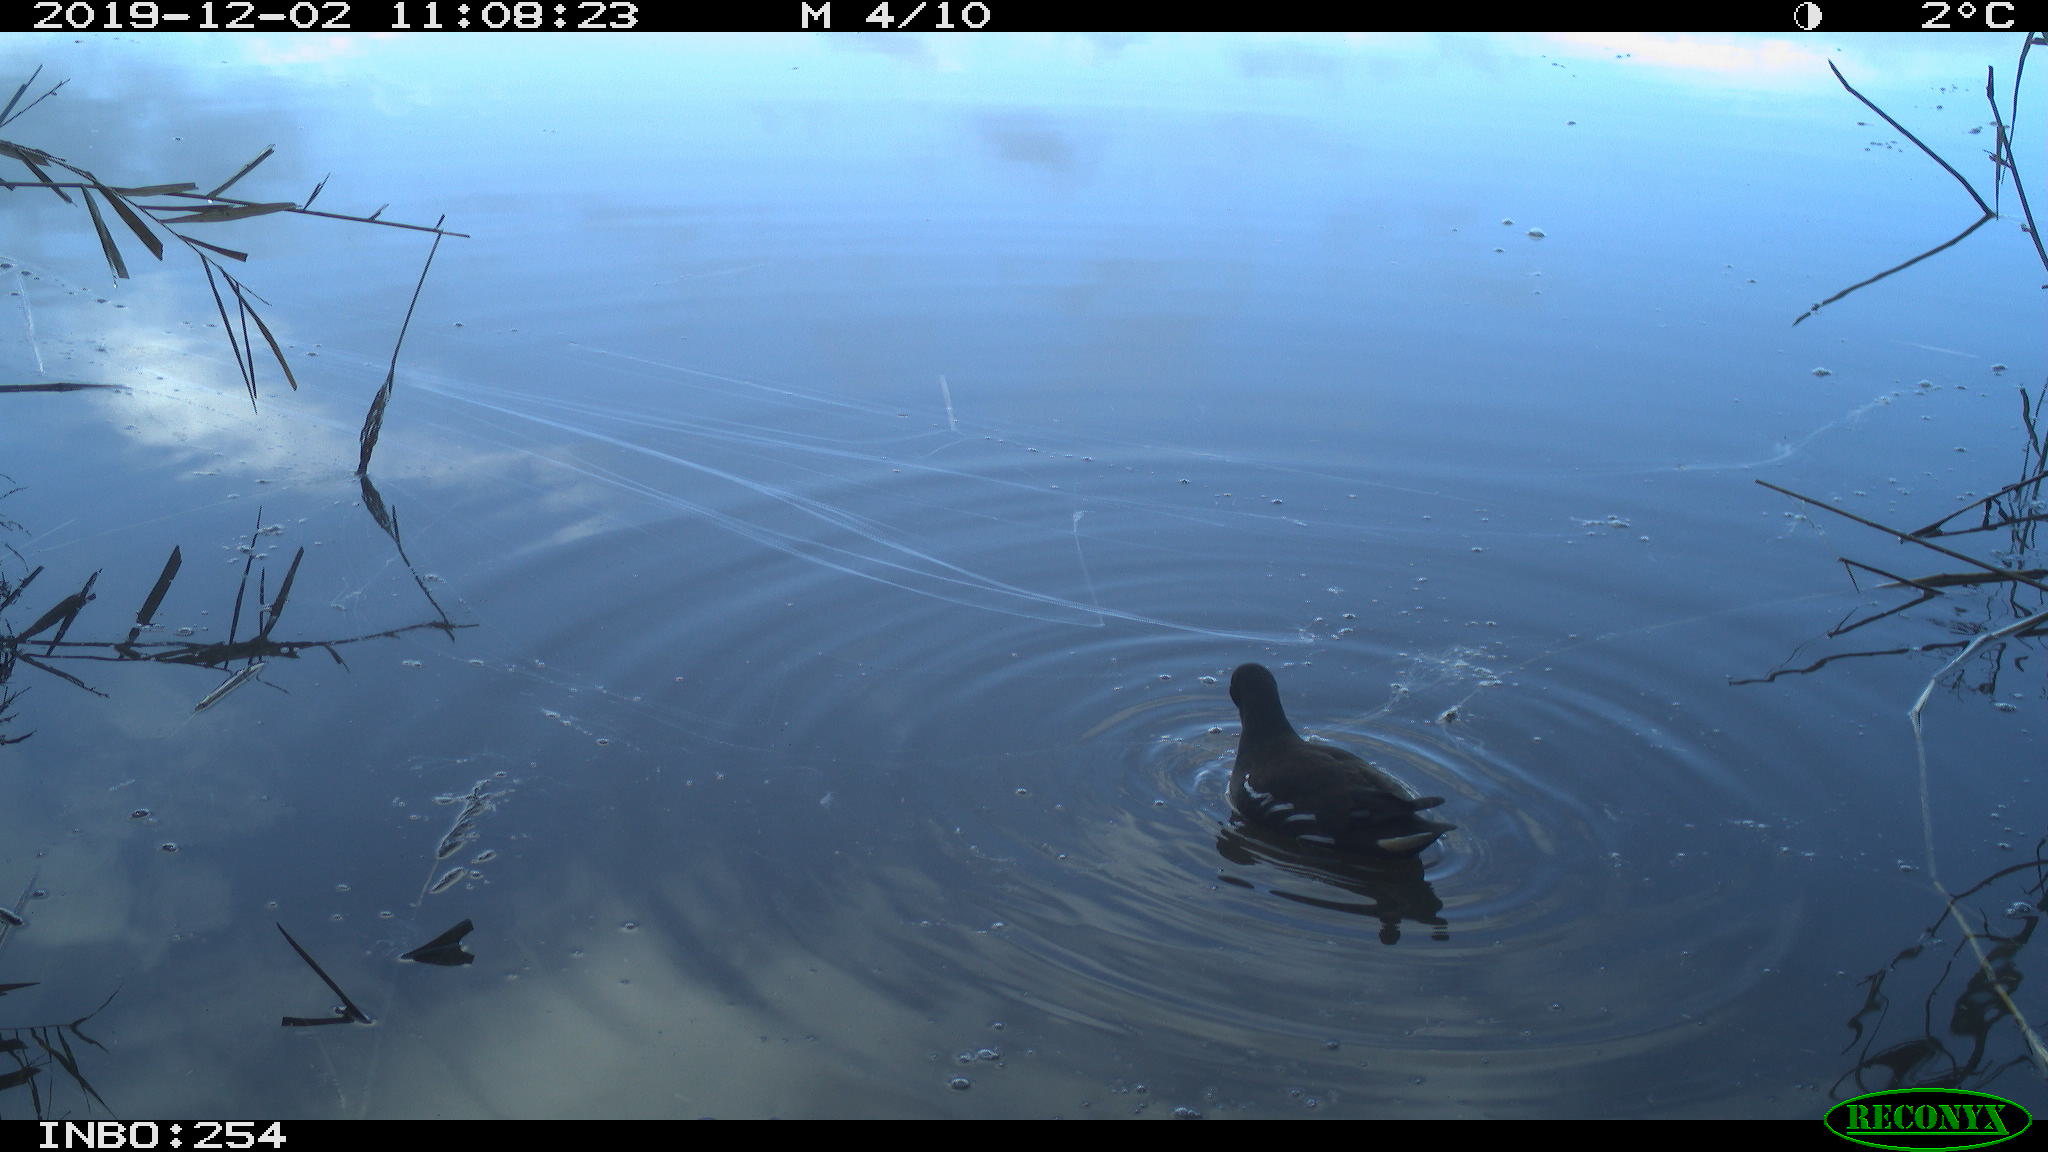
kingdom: Animalia
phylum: Chordata
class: Aves
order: Gruiformes
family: Rallidae
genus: Gallinula
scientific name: Gallinula chloropus
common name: Common moorhen
